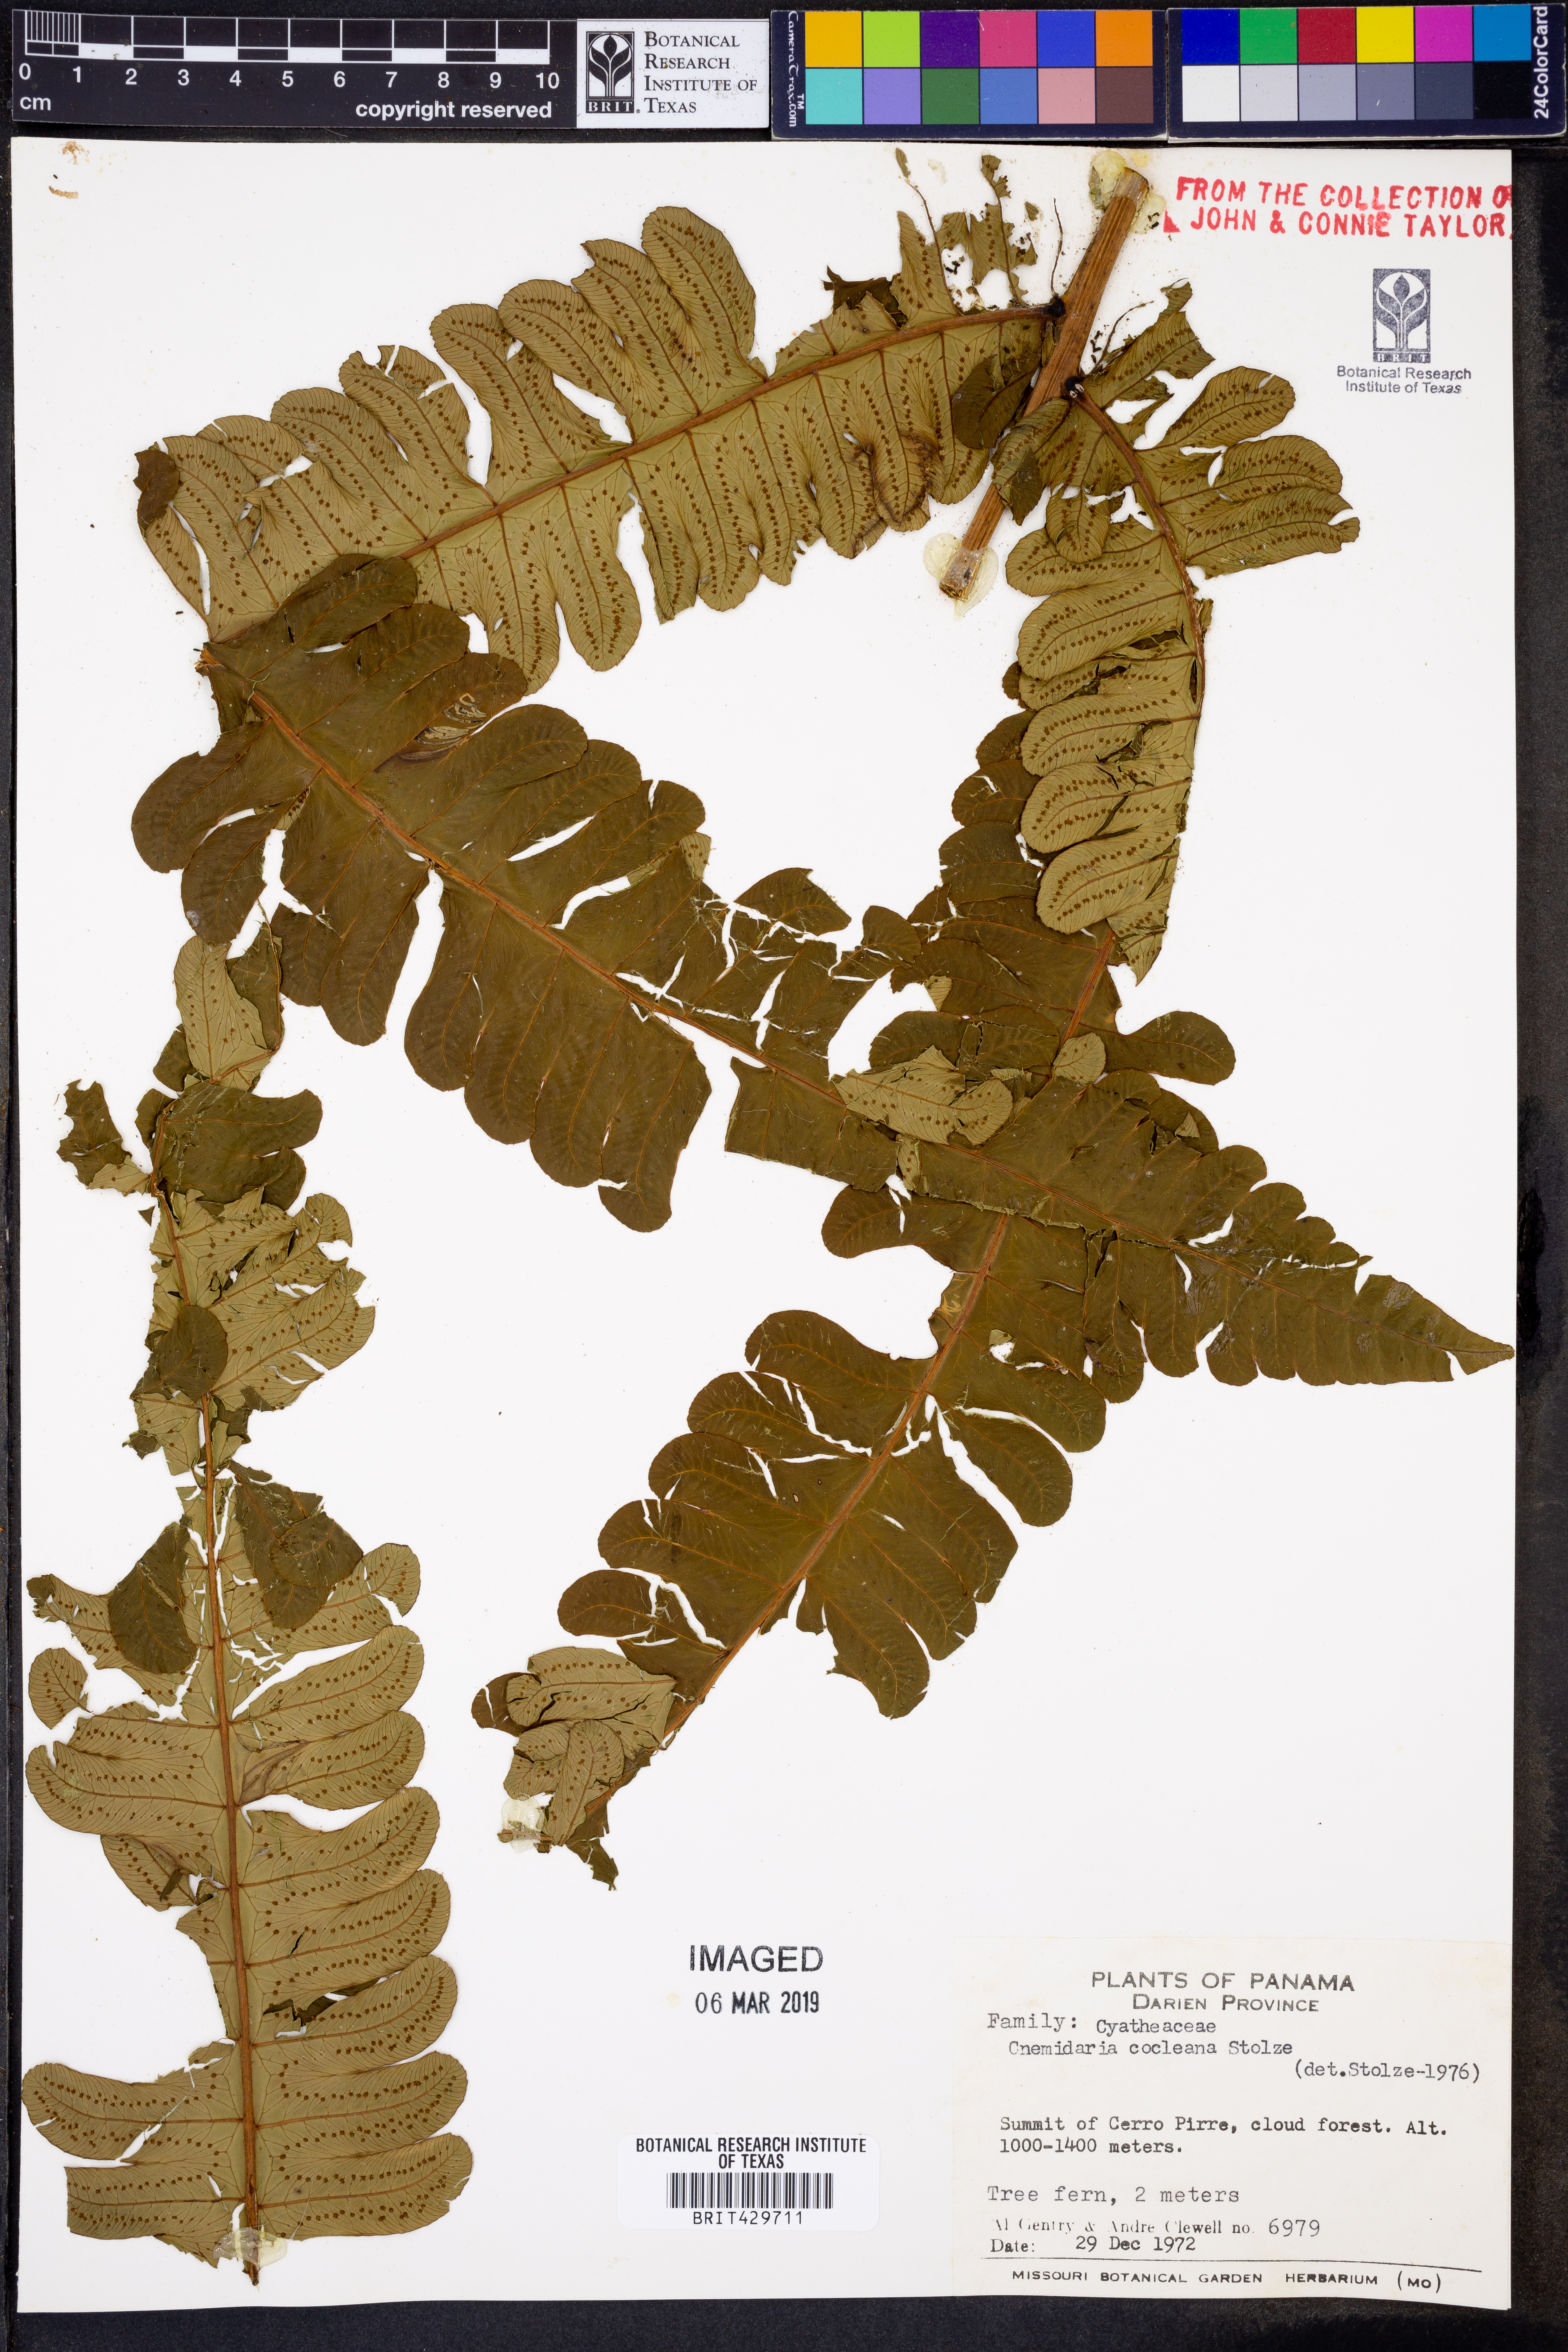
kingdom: Plantae
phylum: Tracheophyta
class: Polypodiopsida
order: Cyatheales
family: Cyatheaceae
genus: Cyathea
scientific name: Cyathea cocleana
